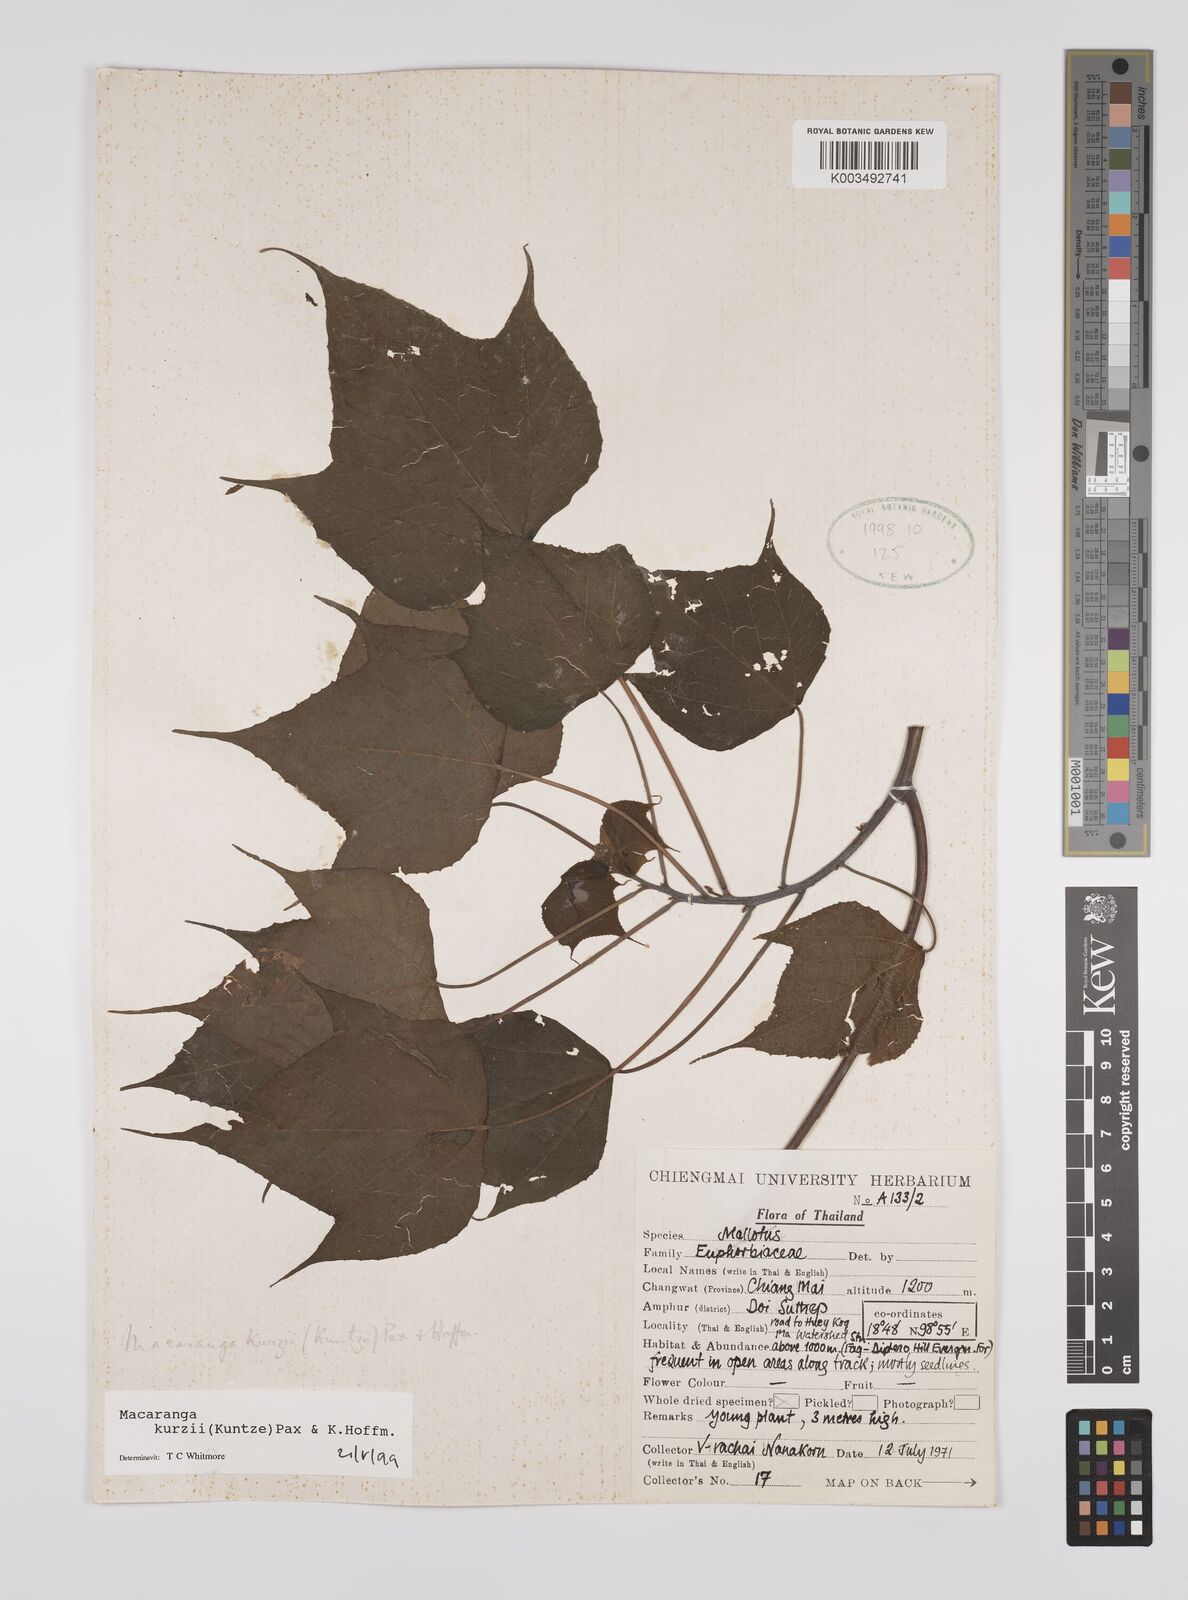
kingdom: Plantae
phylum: Tracheophyta
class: Magnoliopsida
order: Malpighiales
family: Euphorbiaceae
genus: Macaranga
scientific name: Macaranga kurzii
